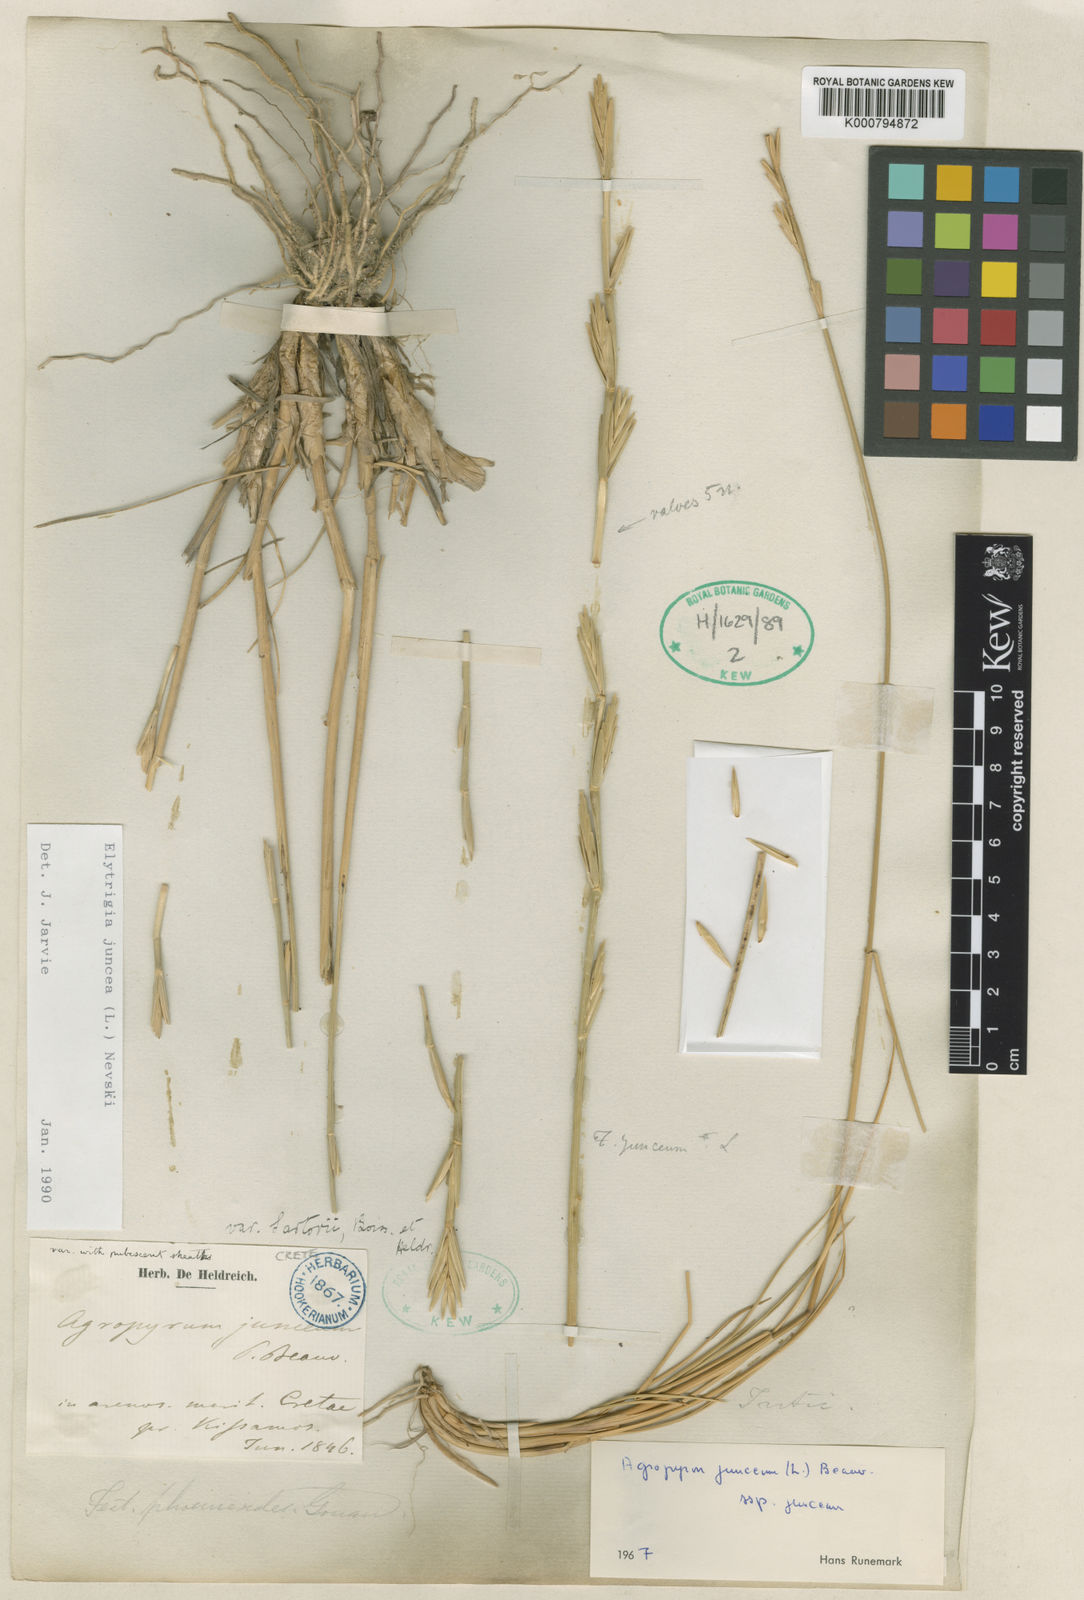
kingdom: Plantae
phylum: Tracheophyta
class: Liliopsida
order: Poales
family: Poaceae
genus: Thinopyrum
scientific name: Thinopyrum junceum
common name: Russian wheatgrass
